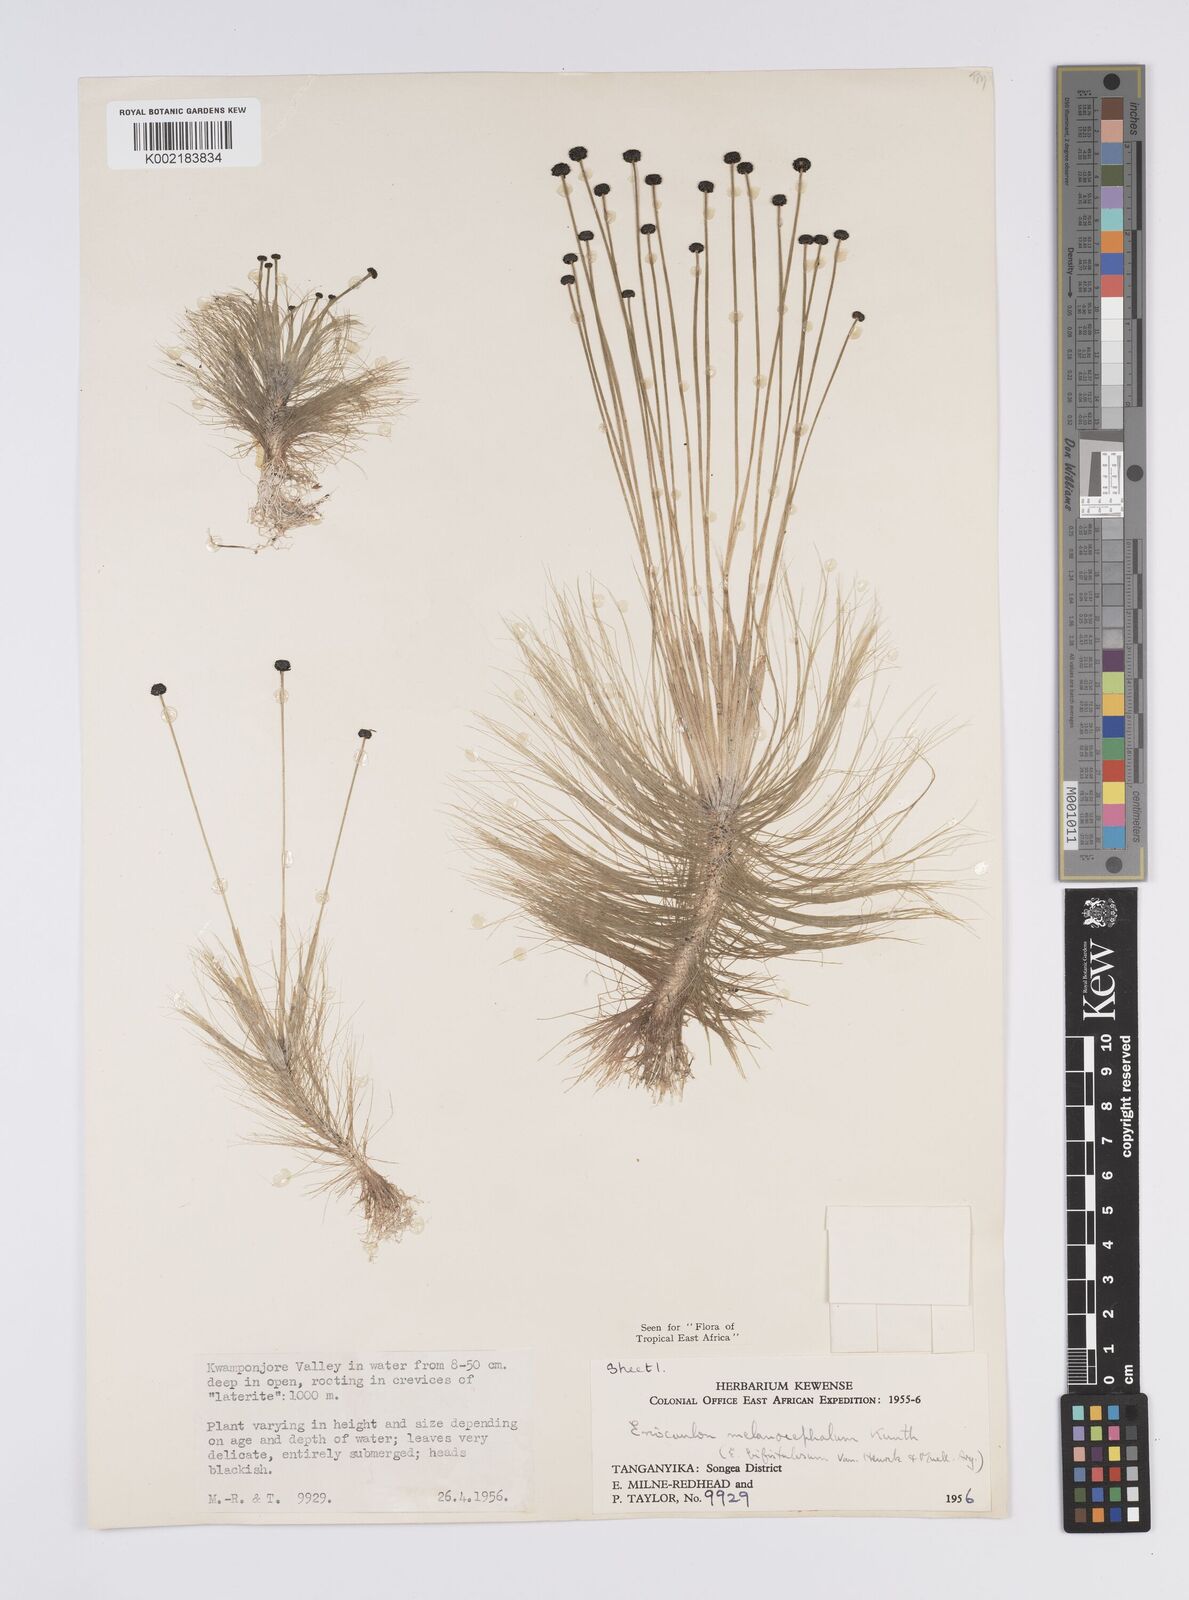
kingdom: Plantae
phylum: Tracheophyta
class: Liliopsida
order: Poales
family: Eriocaulaceae
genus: Eriocaulon
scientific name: Eriocaulon setaceum
